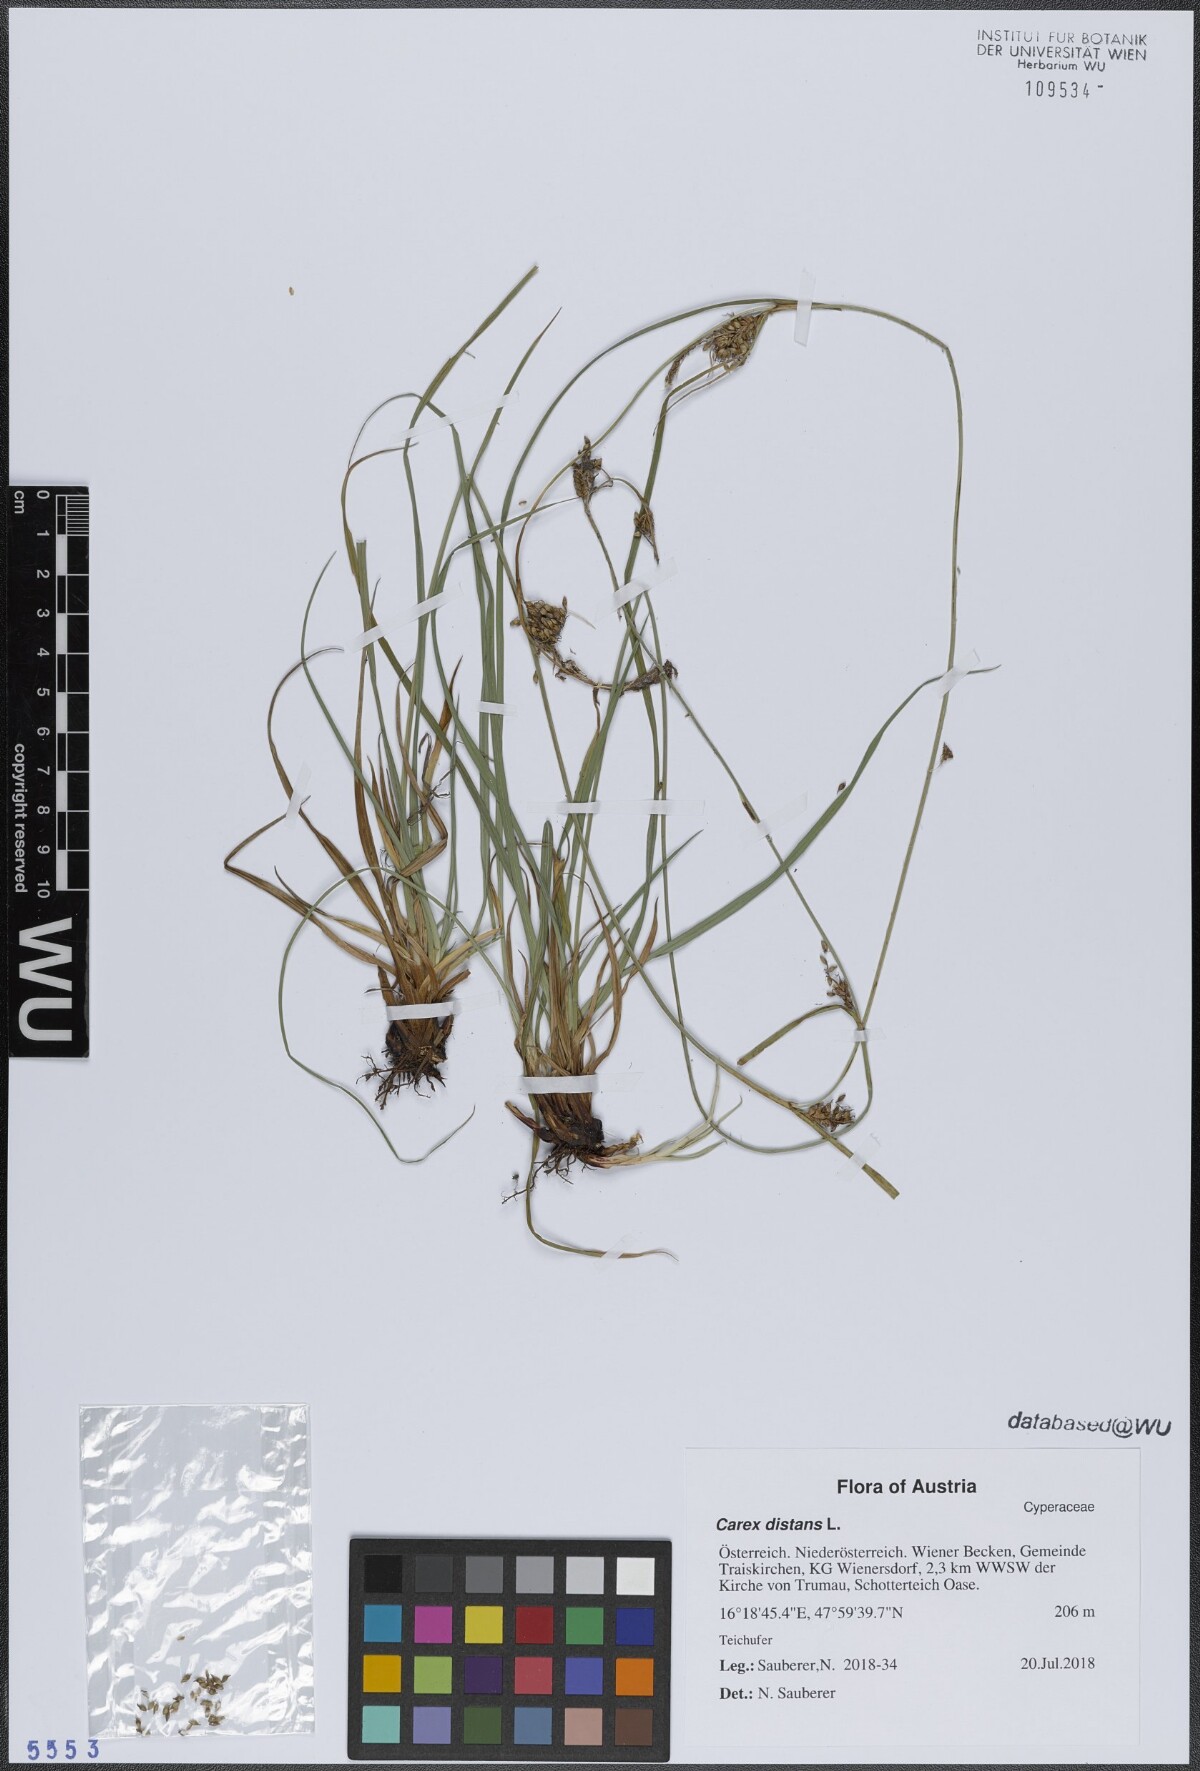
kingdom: Plantae
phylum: Tracheophyta
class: Liliopsida
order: Poales
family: Cyperaceae
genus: Carex
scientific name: Carex distans
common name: Distant sedge
